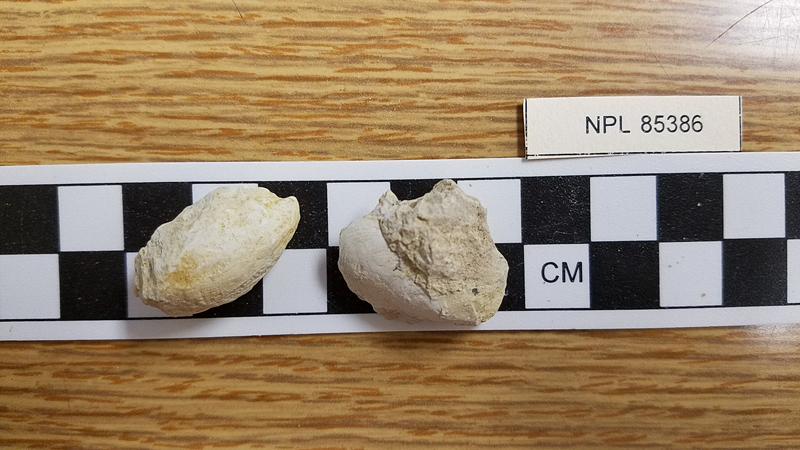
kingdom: Animalia
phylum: Mollusca
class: Bivalvia
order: Myalinida
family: Inoceramidae
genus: Inoceramus
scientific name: Inoceramus comancheanus
